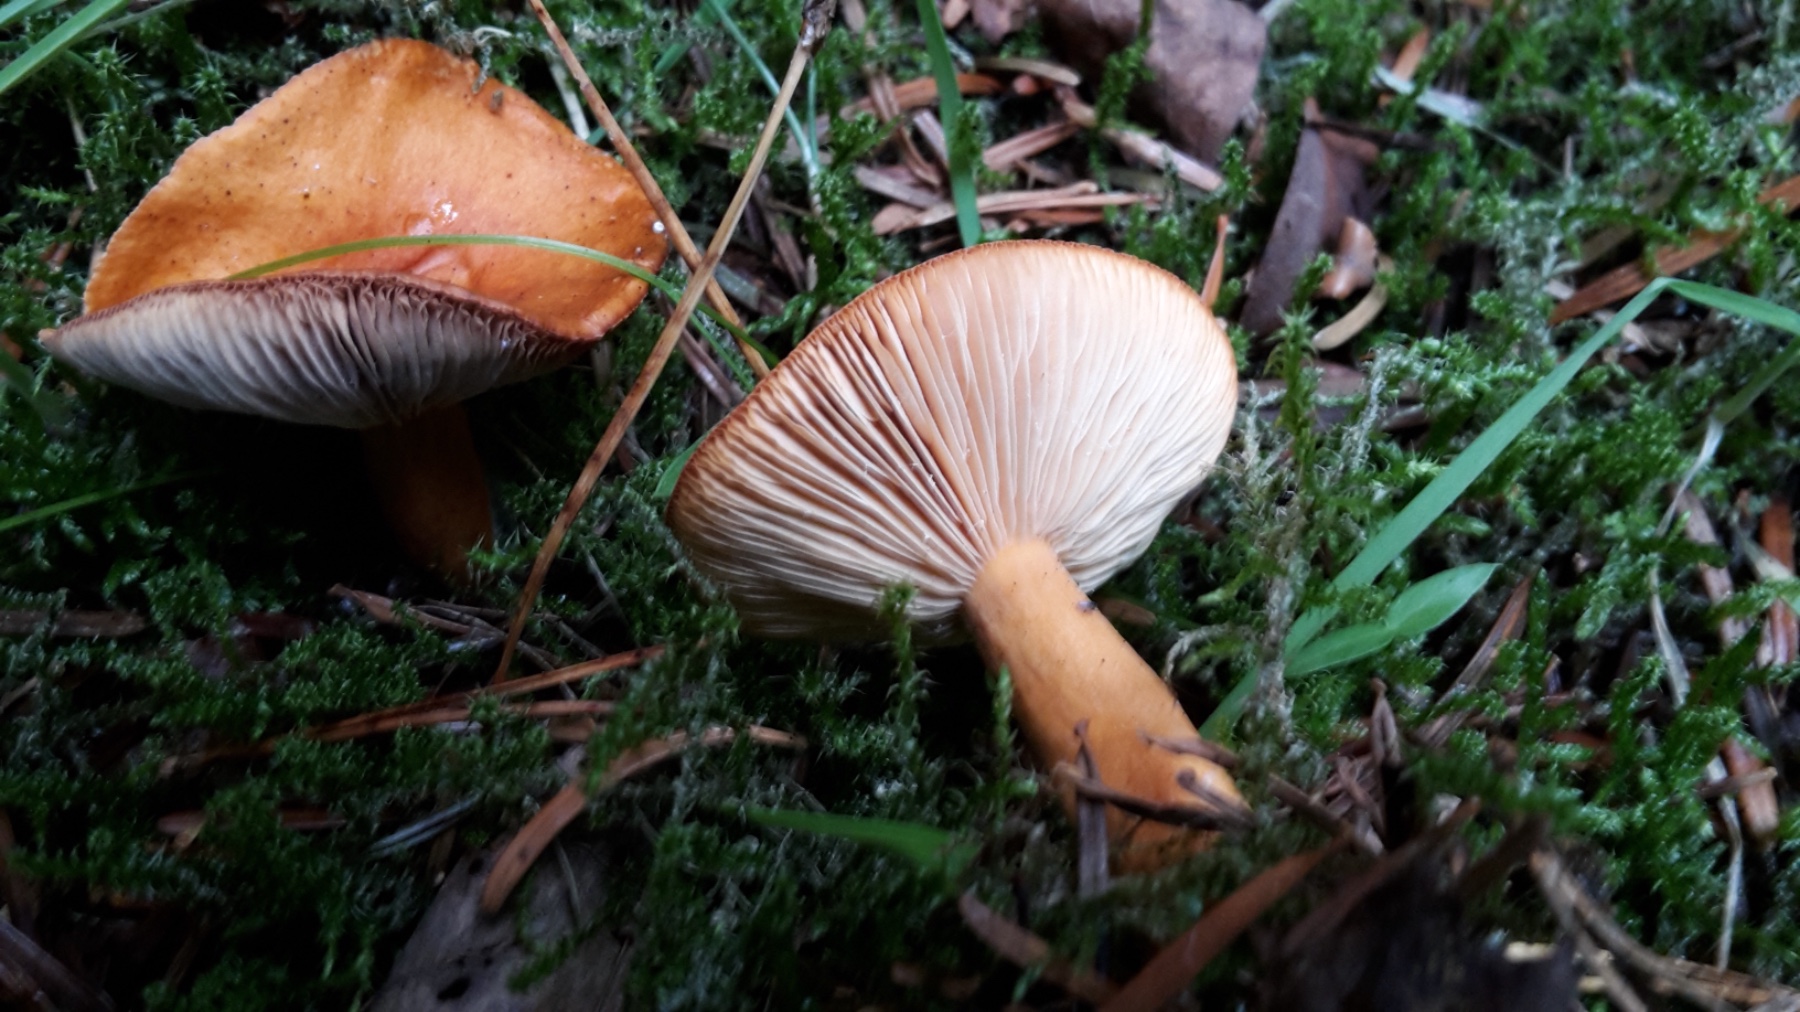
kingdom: Fungi
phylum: Basidiomycota
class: Agaricomycetes
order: Russulales
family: Russulaceae
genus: Lactarius
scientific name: Lactarius aurantiacus
